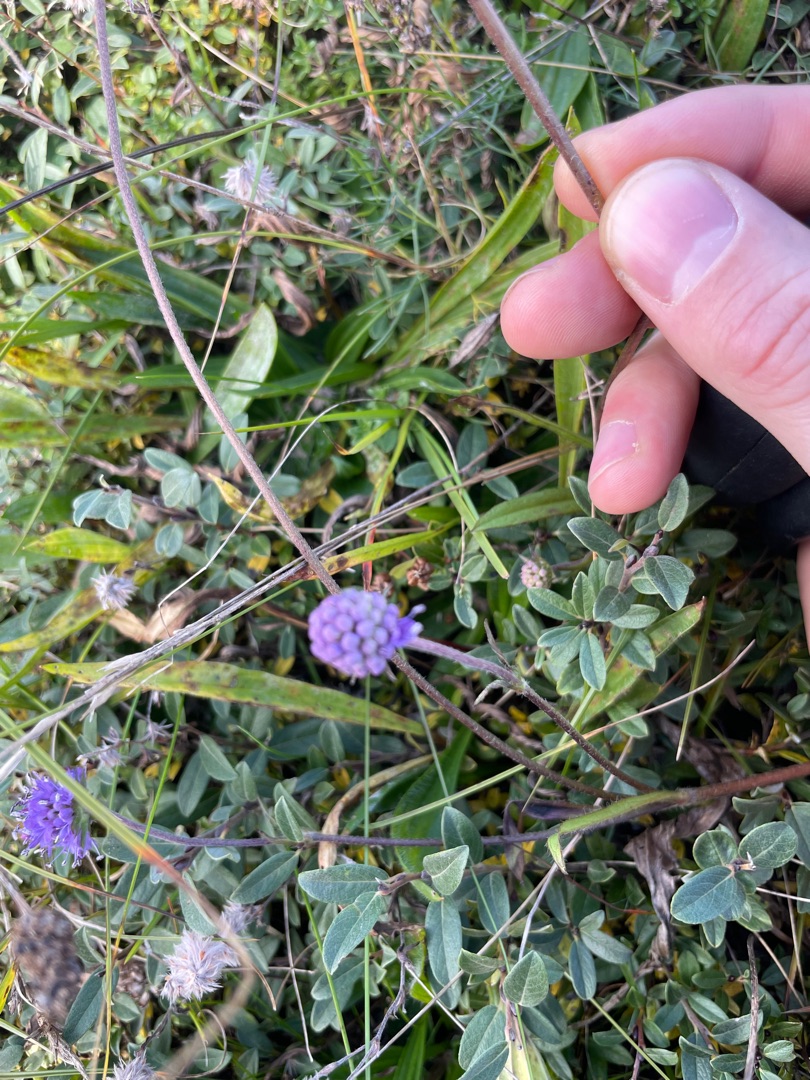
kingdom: Plantae
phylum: Tracheophyta
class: Magnoliopsida
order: Dipsacales
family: Caprifoliaceae
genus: Succisa
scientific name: Succisa pratensis
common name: Djævelsbid
